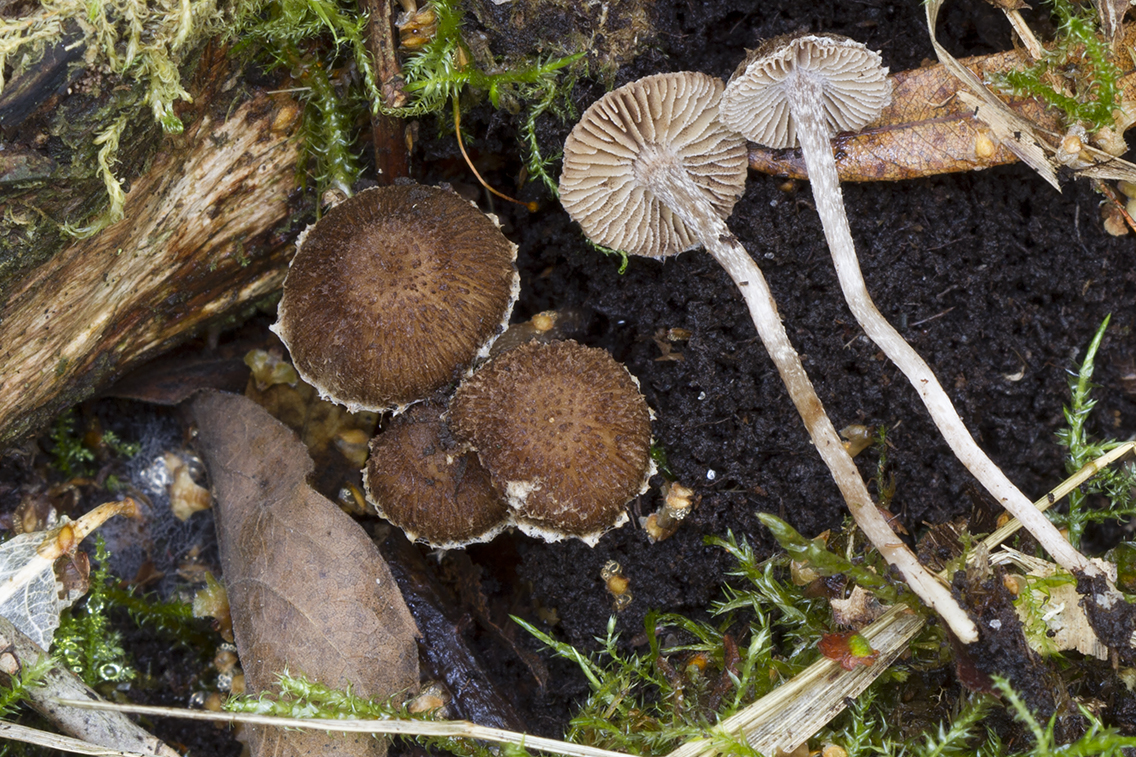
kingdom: Fungi
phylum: Basidiomycota
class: Agaricomycetes
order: Agaricales
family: Inocybaceae
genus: Inocybe
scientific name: Inocybe squarrosa
